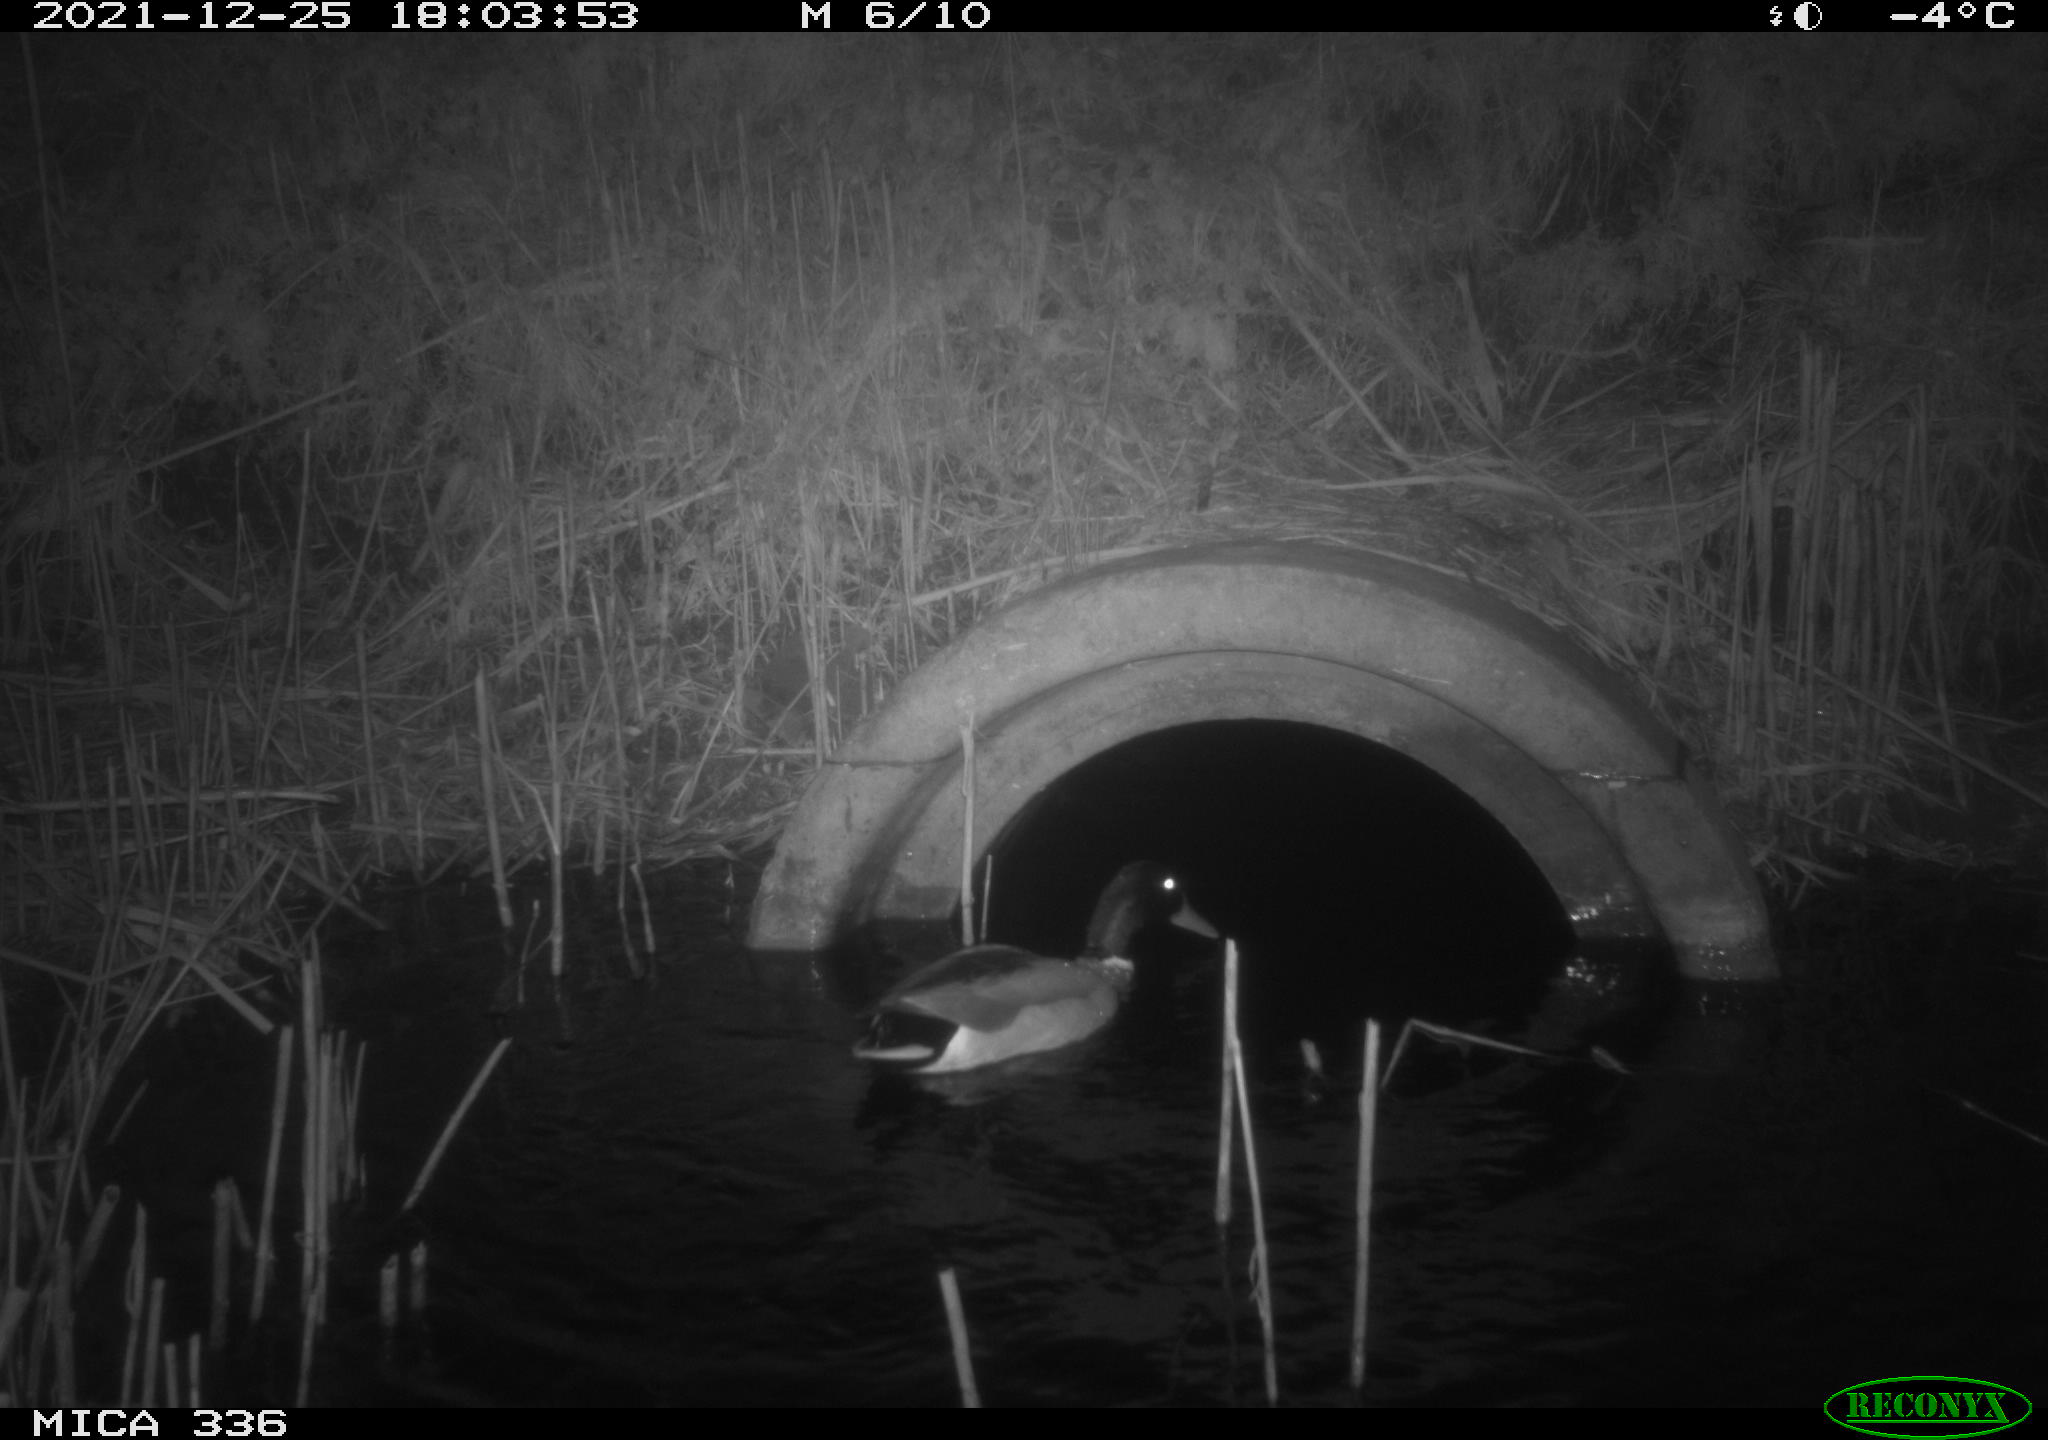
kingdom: Animalia
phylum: Chordata
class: Aves
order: Anseriformes
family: Anatidae
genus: Anas
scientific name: Anas platyrhynchos
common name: Mallard
